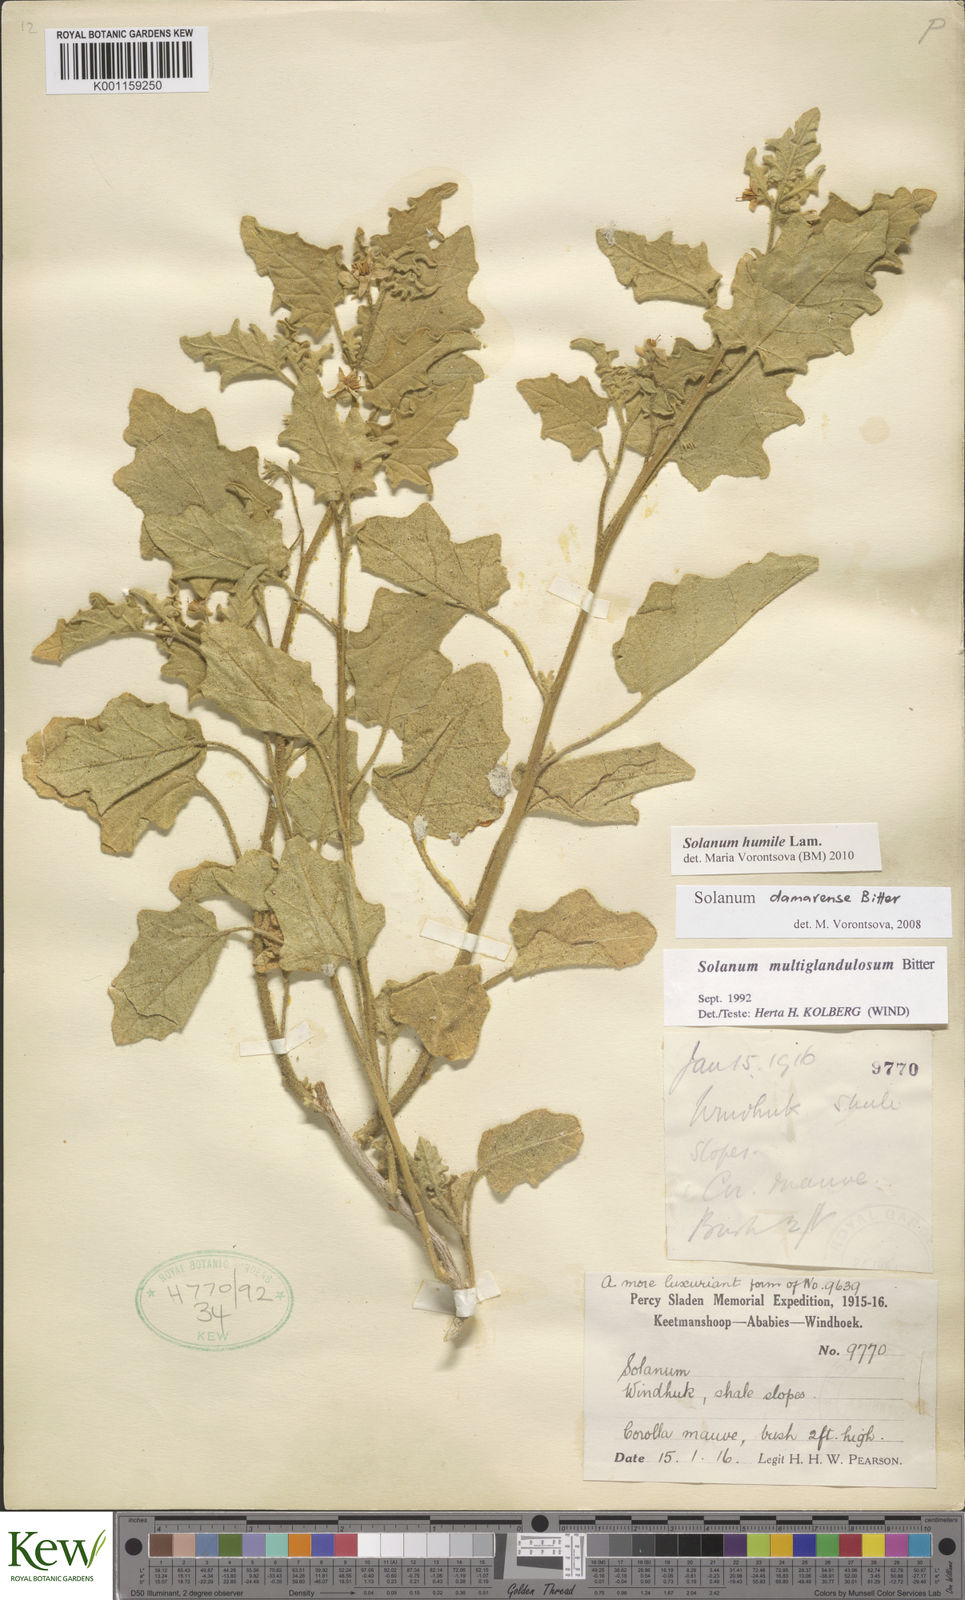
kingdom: Plantae
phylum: Tracheophyta
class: Magnoliopsida
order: Solanales
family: Solanaceae
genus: Solanum
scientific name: Solanum humile
